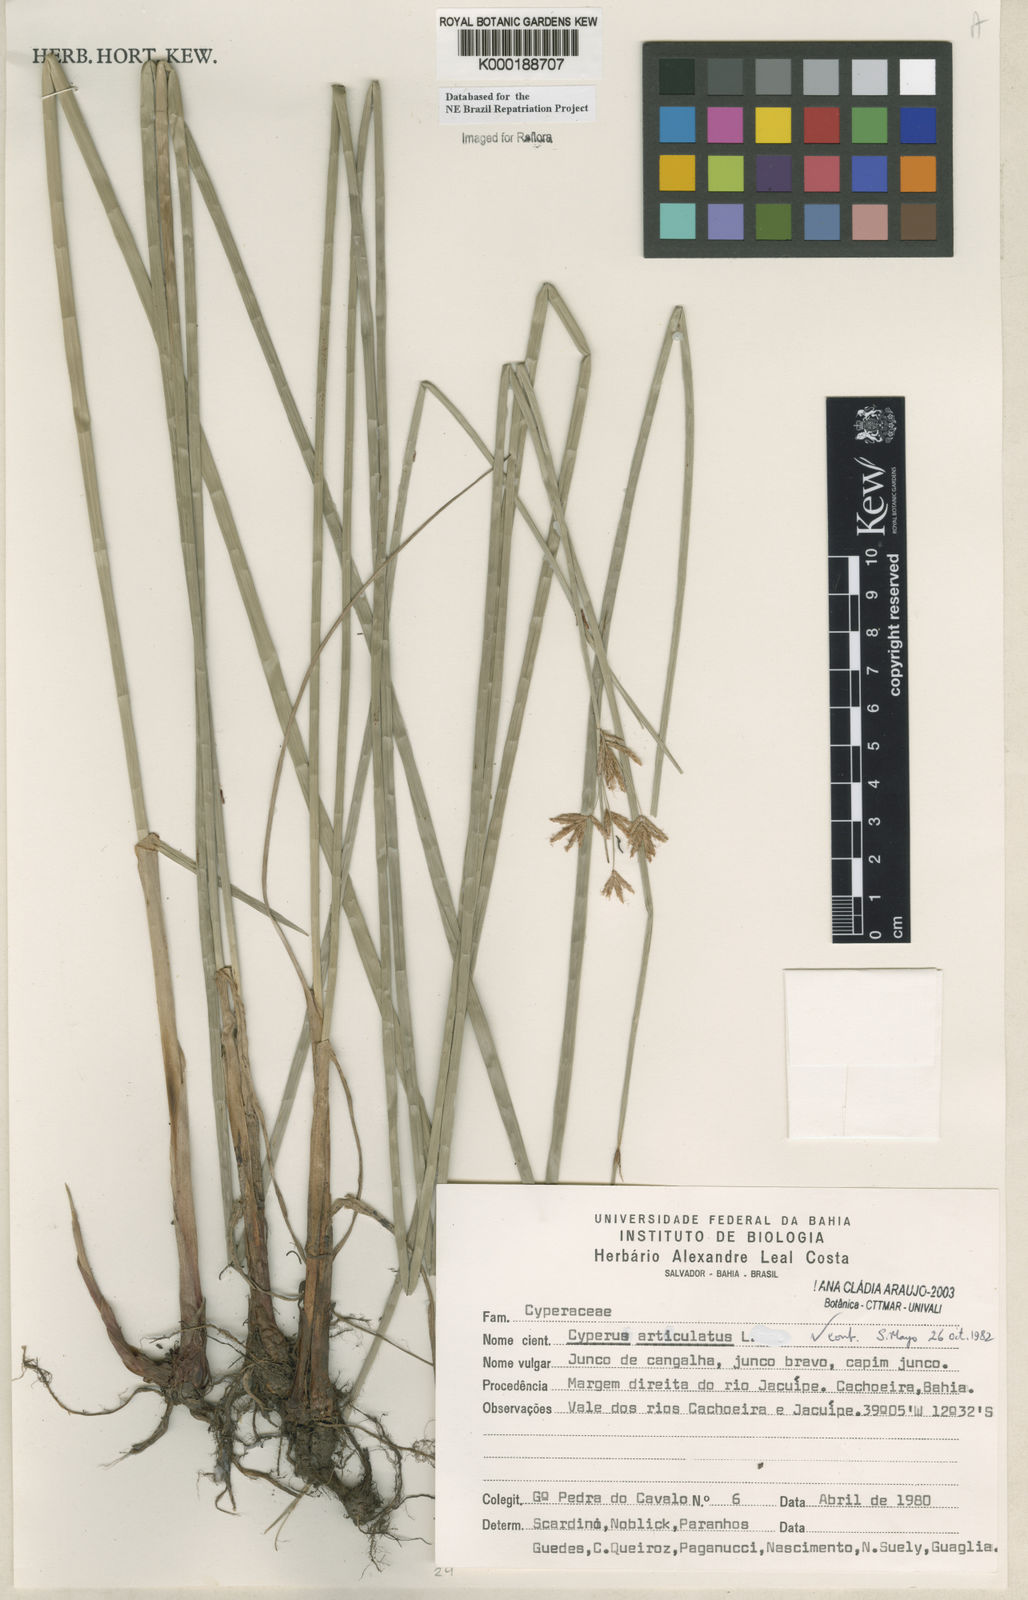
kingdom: Plantae
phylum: Tracheophyta
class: Liliopsida
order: Poales
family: Cyperaceae
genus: Cyperus
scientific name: Cyperus articulatus
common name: Jointed flatsedge
